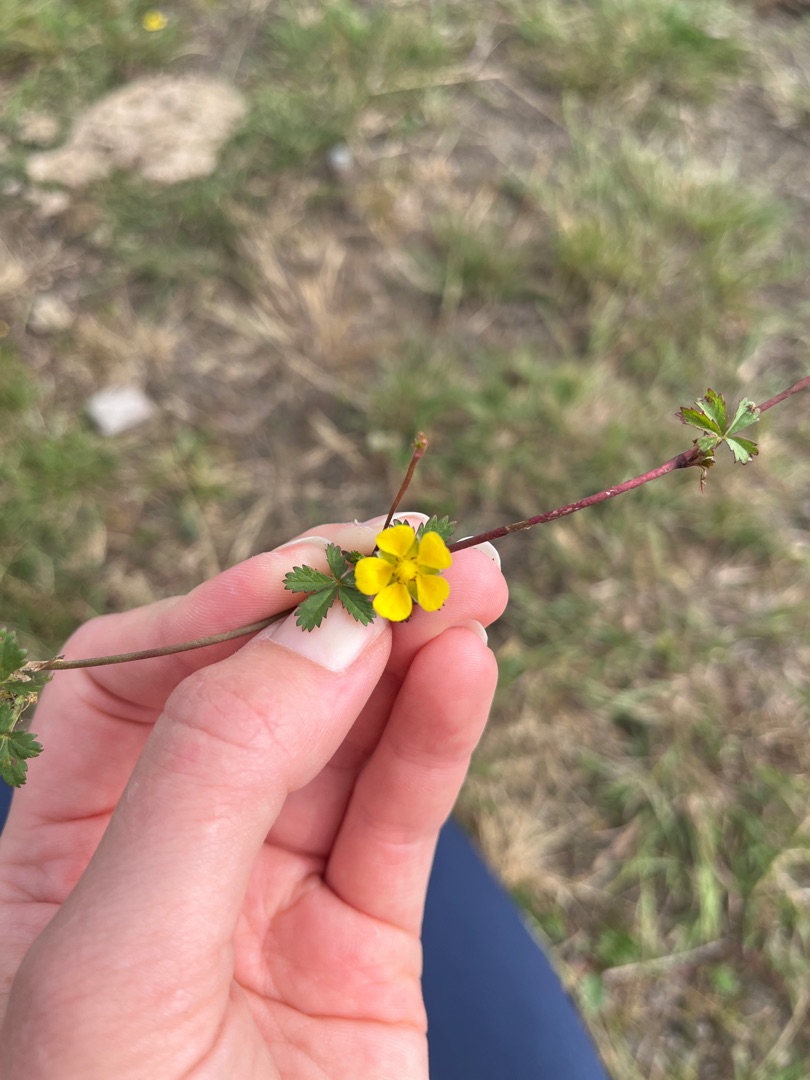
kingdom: Plantae
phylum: Tracheophyta
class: Magnoliopsida
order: Rosales
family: Rosaceae
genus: Potentilla
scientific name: Potentilla reptans
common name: Krybende potentil
